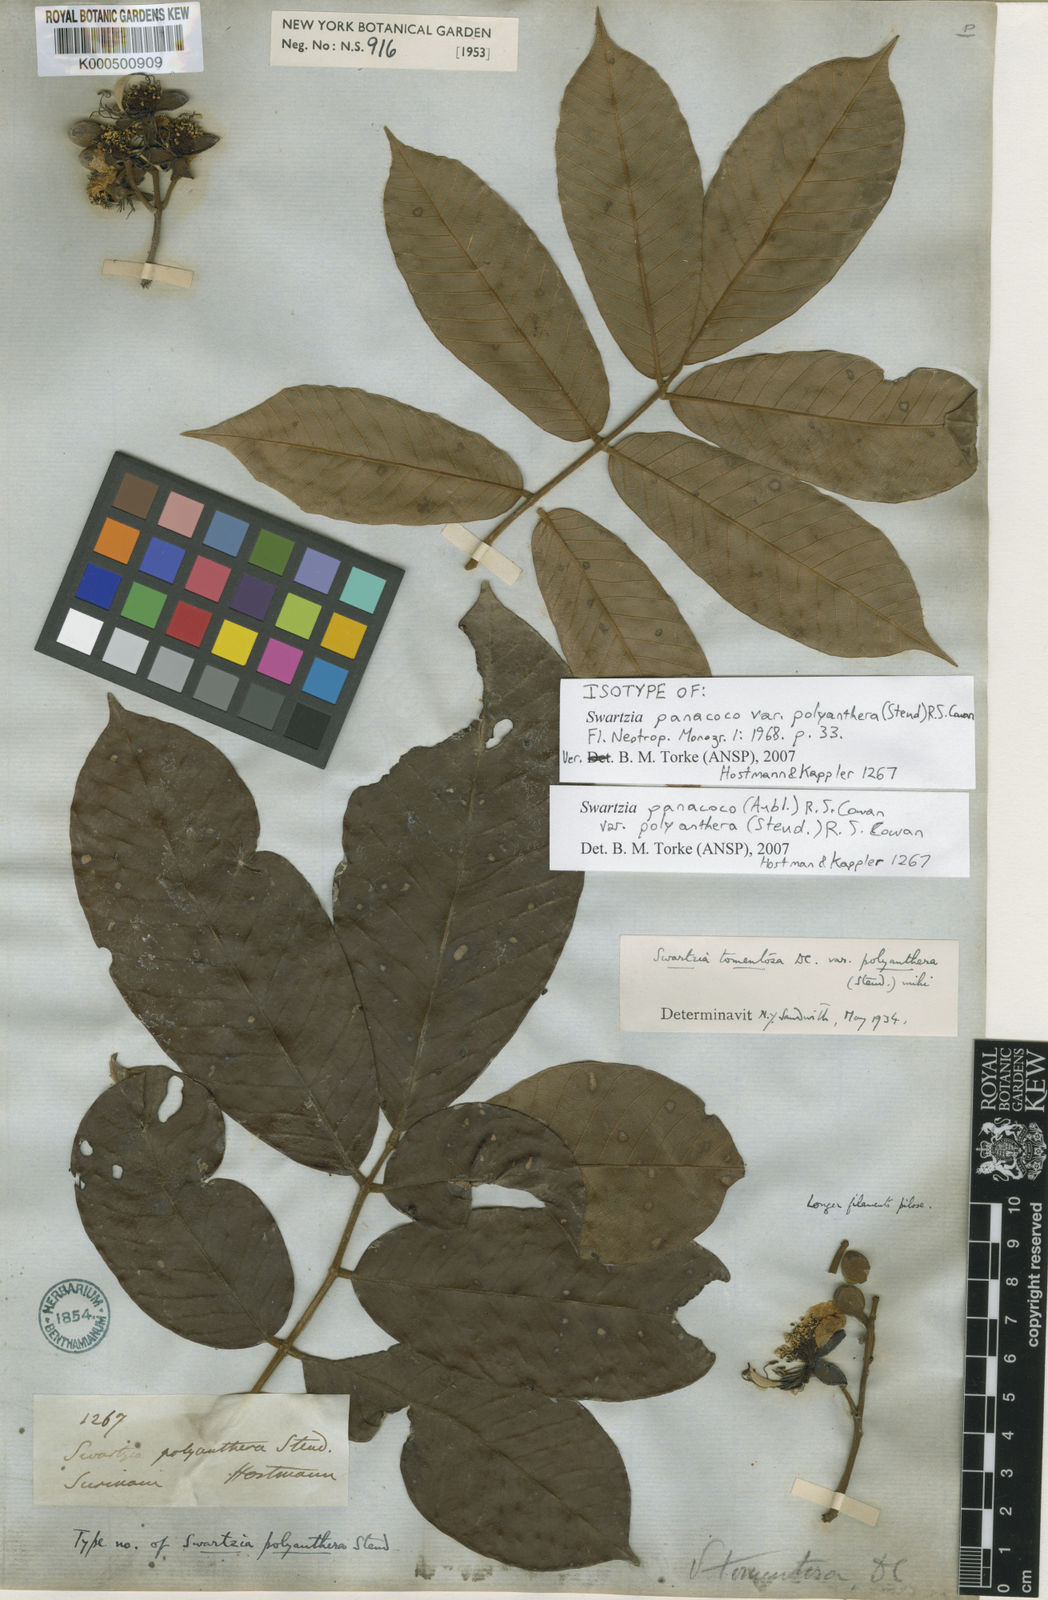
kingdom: Plantae
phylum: Tracheophyta
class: Magnoliopsida
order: Fabales
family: Fabaceae
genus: Swartzia
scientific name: Swartzia panacoco
